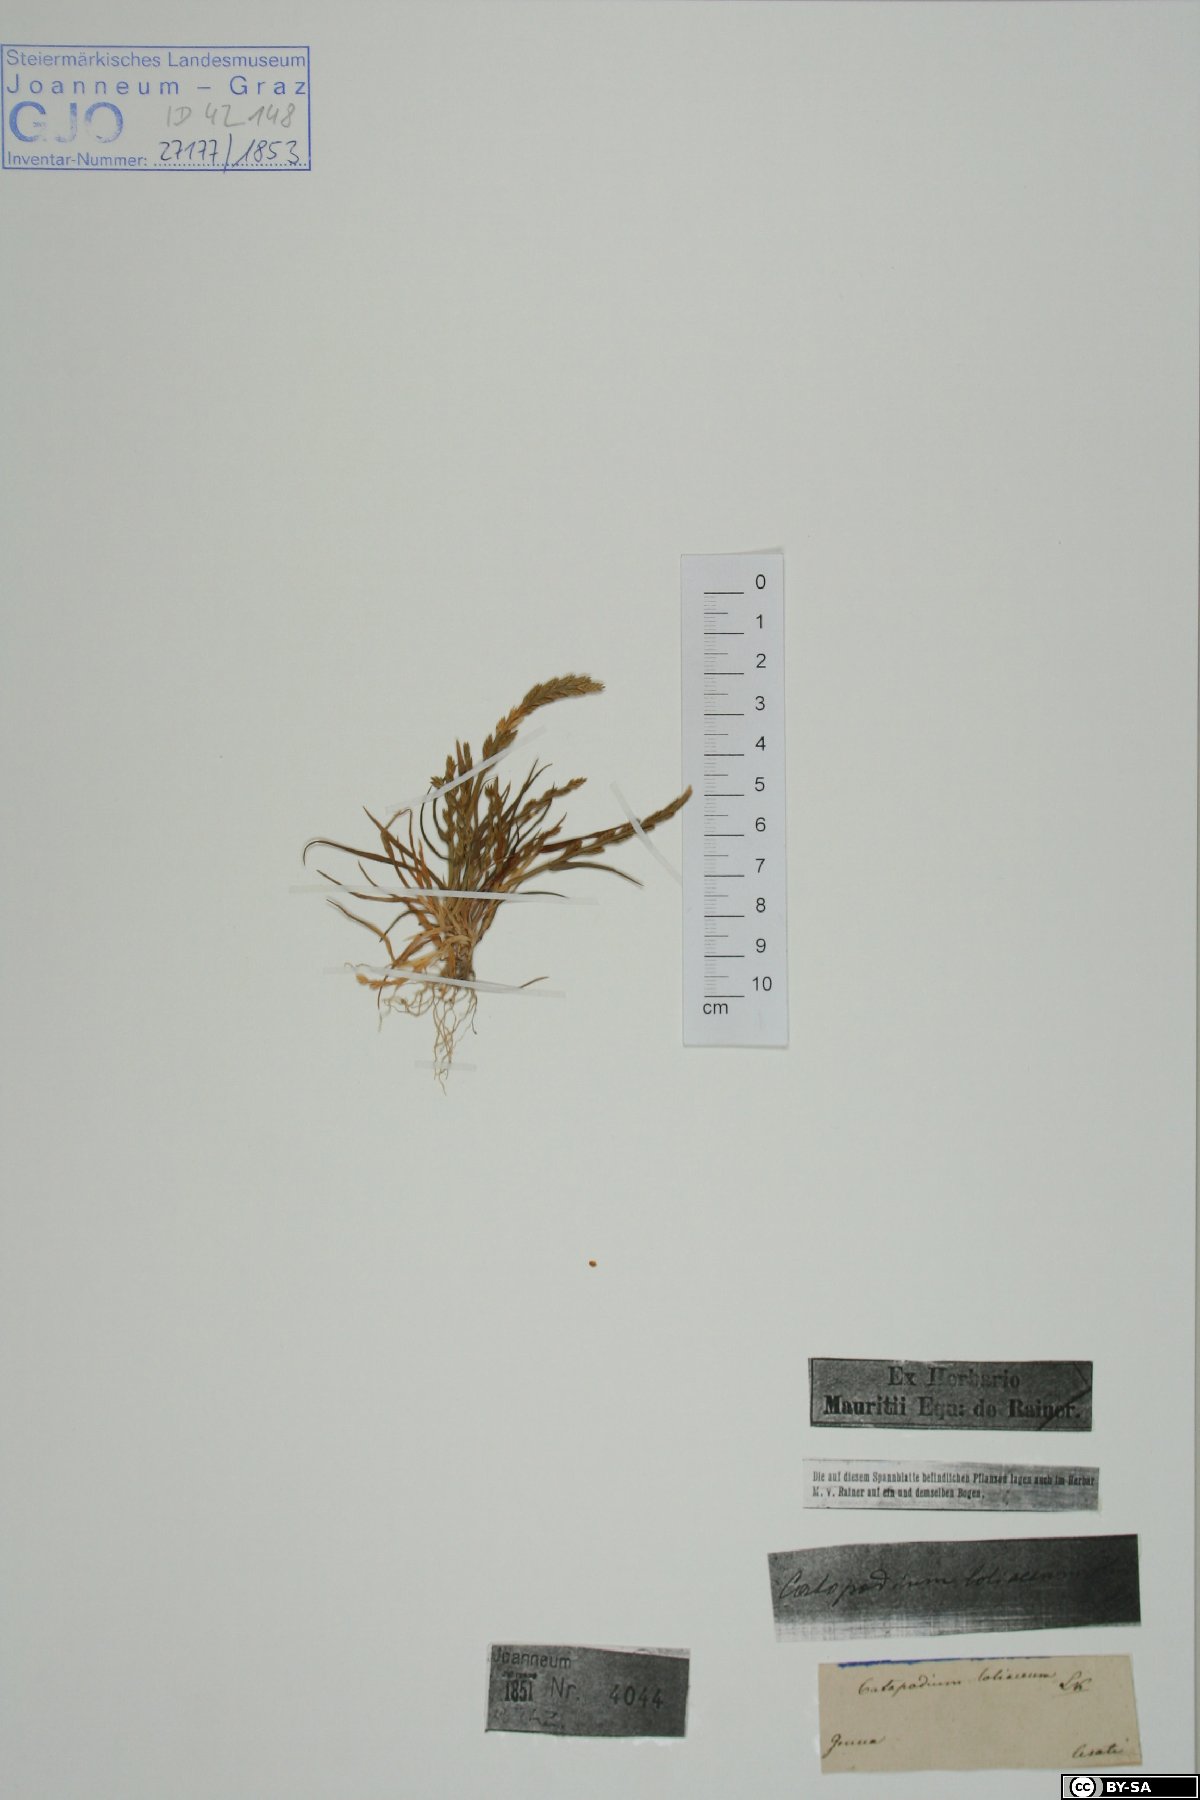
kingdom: Plantae
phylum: Tracheophyta
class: Liliopsida
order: Poales
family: Poaceae
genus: Catapodium
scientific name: Catapodium marinum
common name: Sea fern-grass
